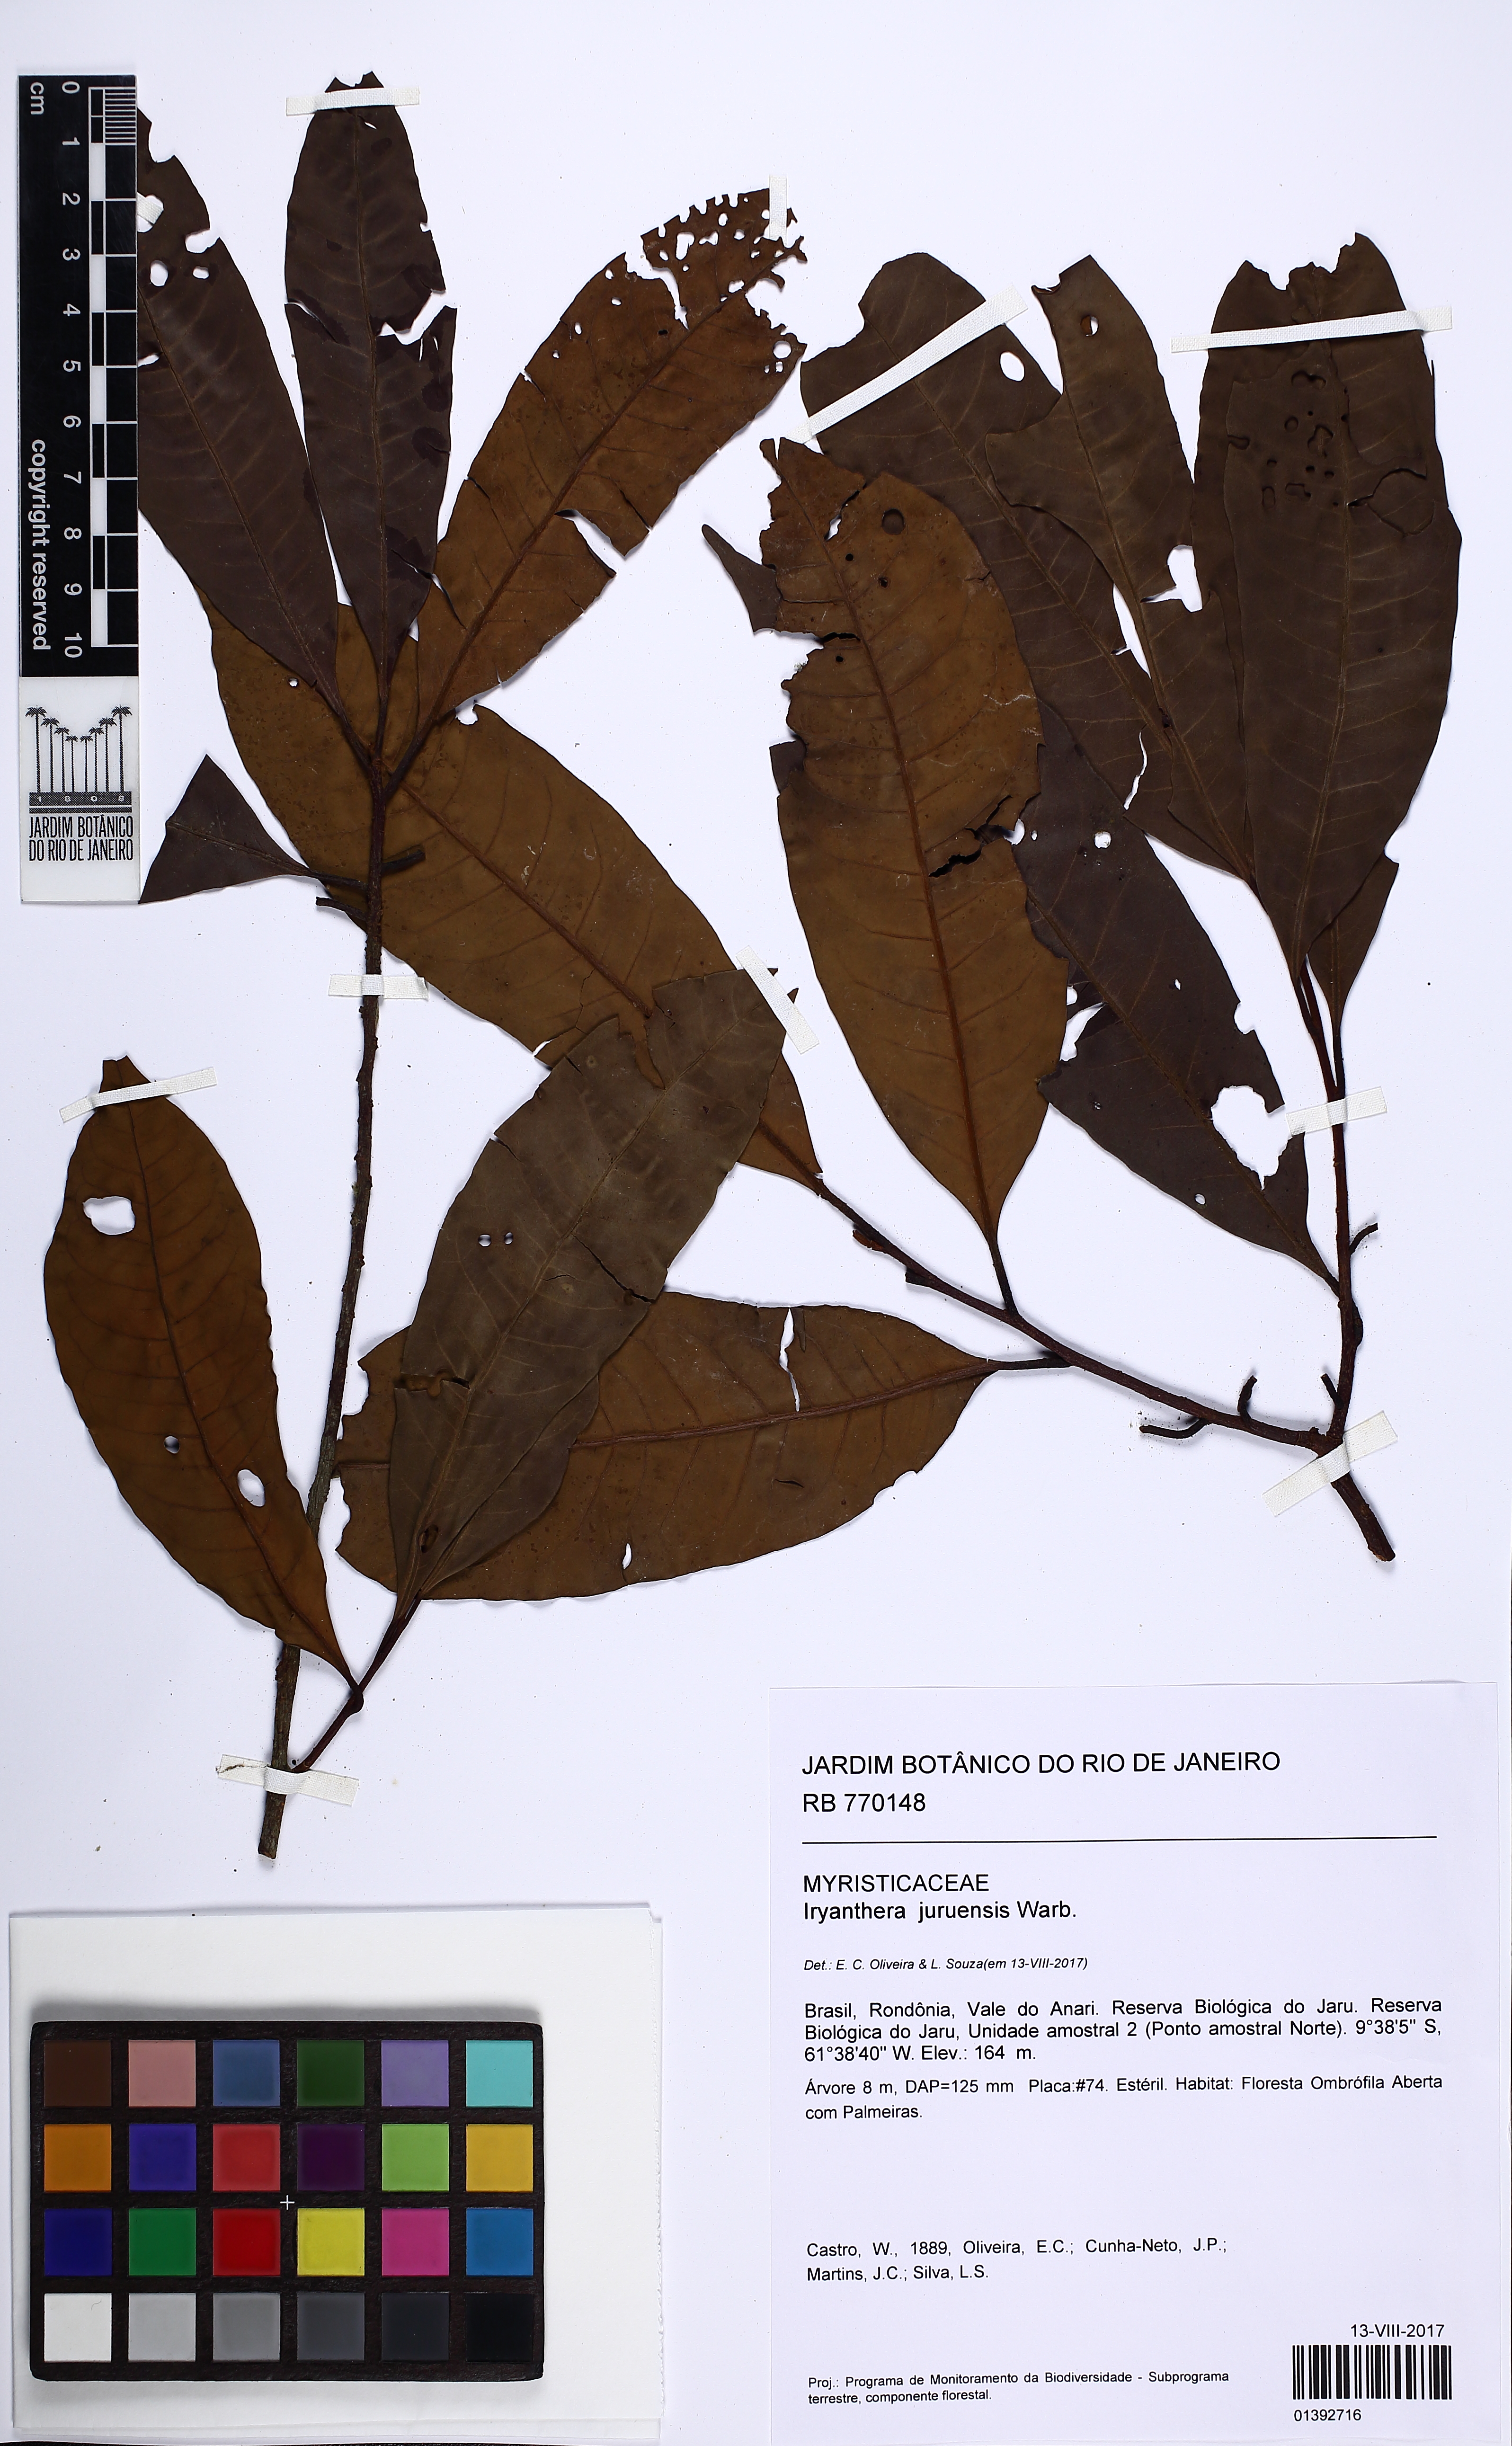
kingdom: Plantae
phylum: Tracheophyta
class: Magnoliopsida
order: Magnoliales
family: Myristicaceae
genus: Iryanthera
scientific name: Iryanthera juruensis
